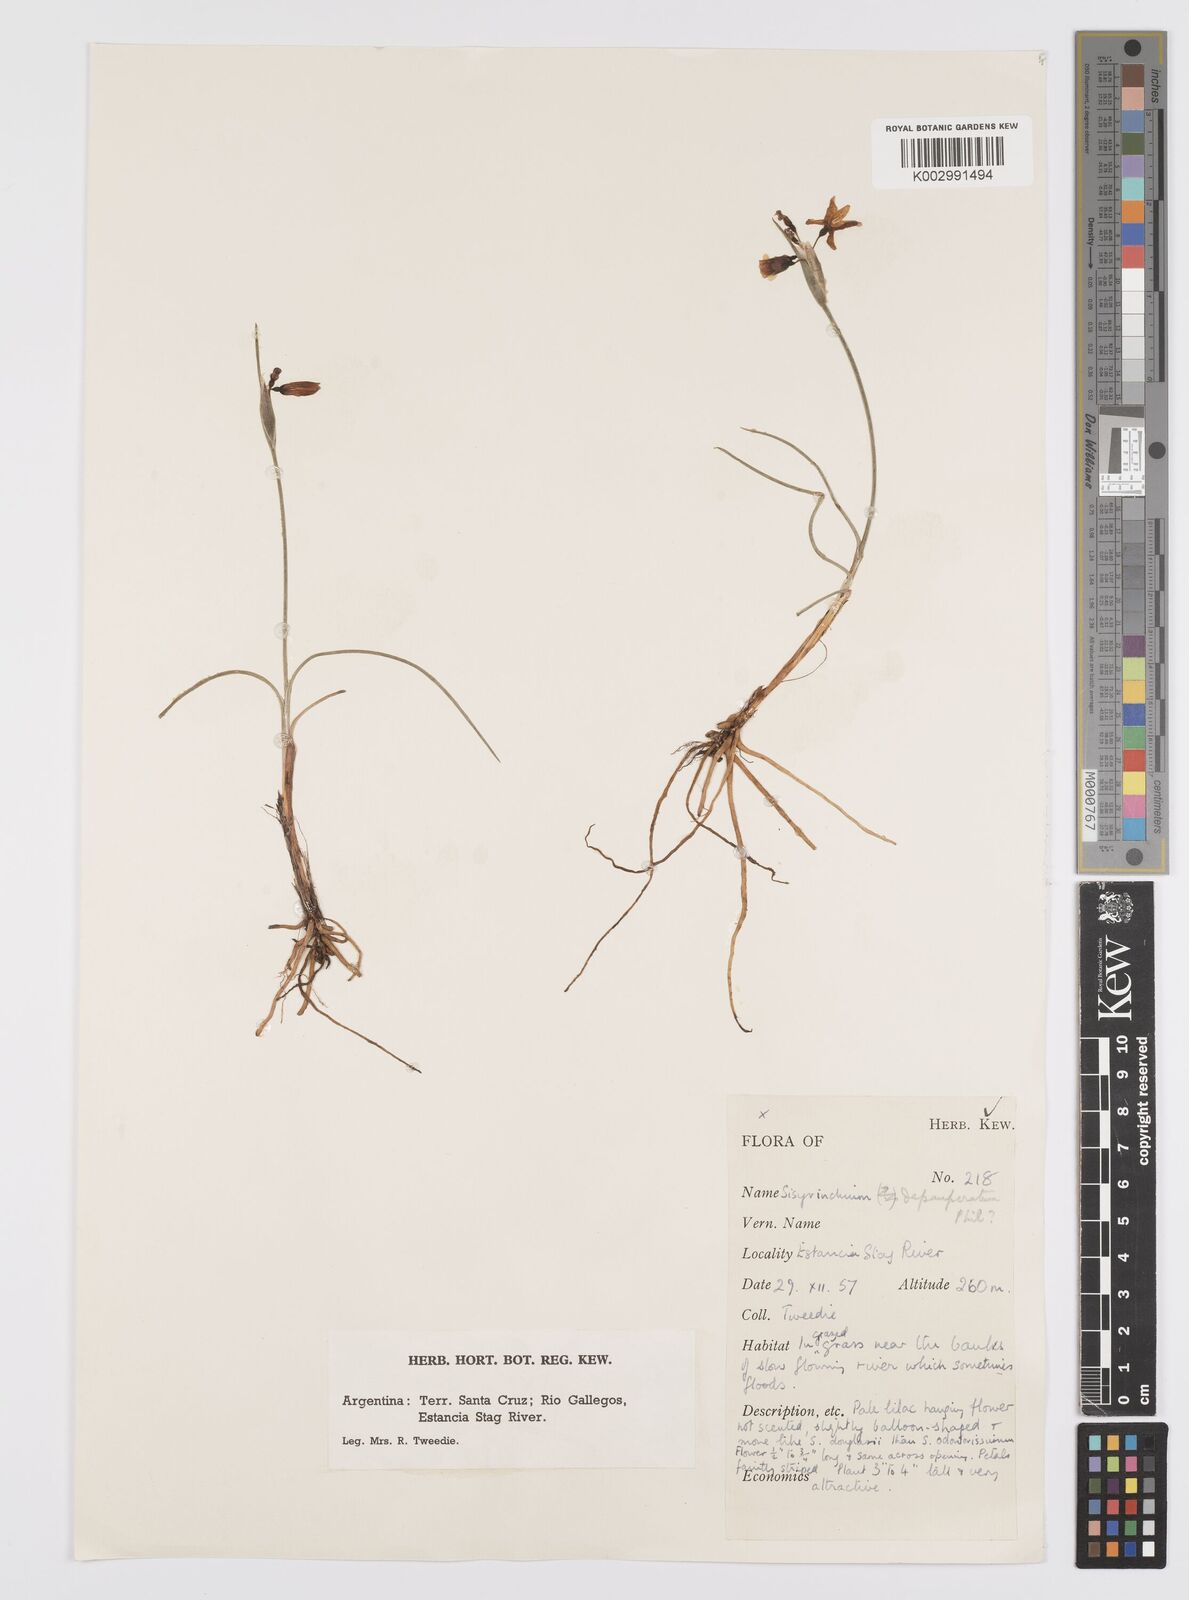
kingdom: Plantae
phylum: Tracheophyta
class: Liliopsida
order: Asparagales
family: Iridaceae
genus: Olsynium
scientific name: Olsynium
